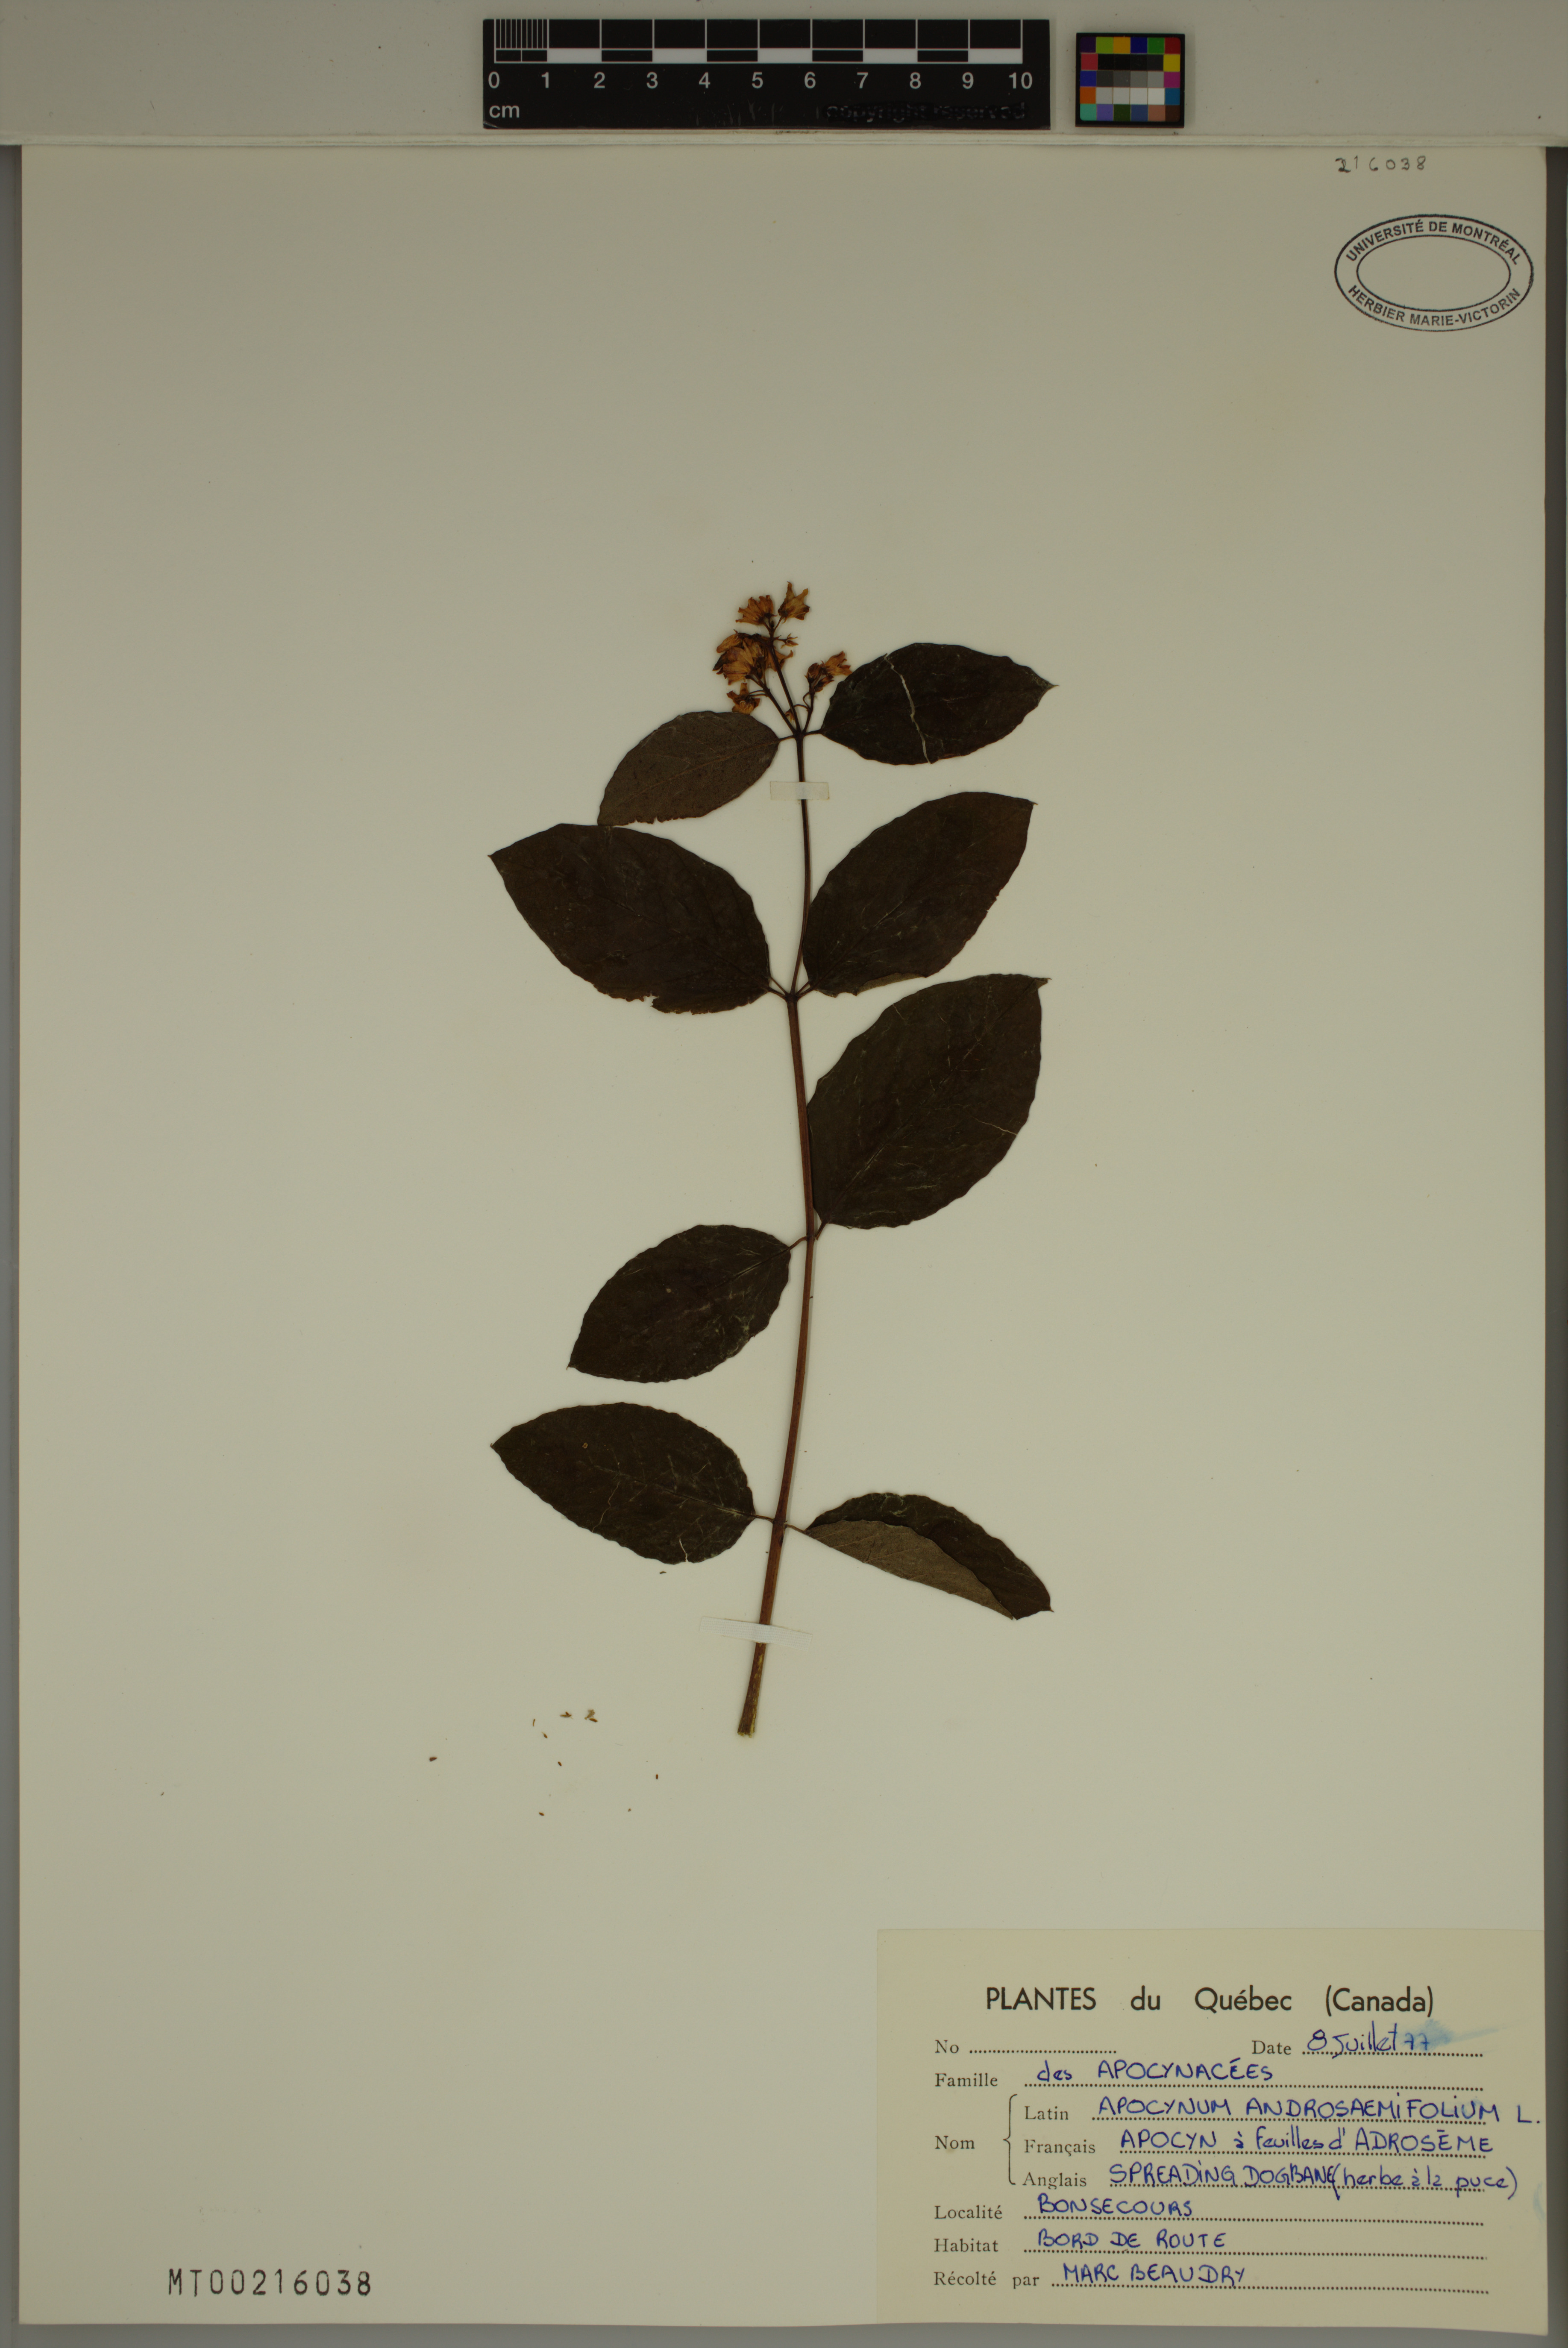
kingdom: Plantae
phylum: Tracheophyta
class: Magnoliopsida
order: Gentianales
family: Apocynaceae
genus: Apocynum
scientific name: Apocynum androsaemifolium
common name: Spreading dogbane
